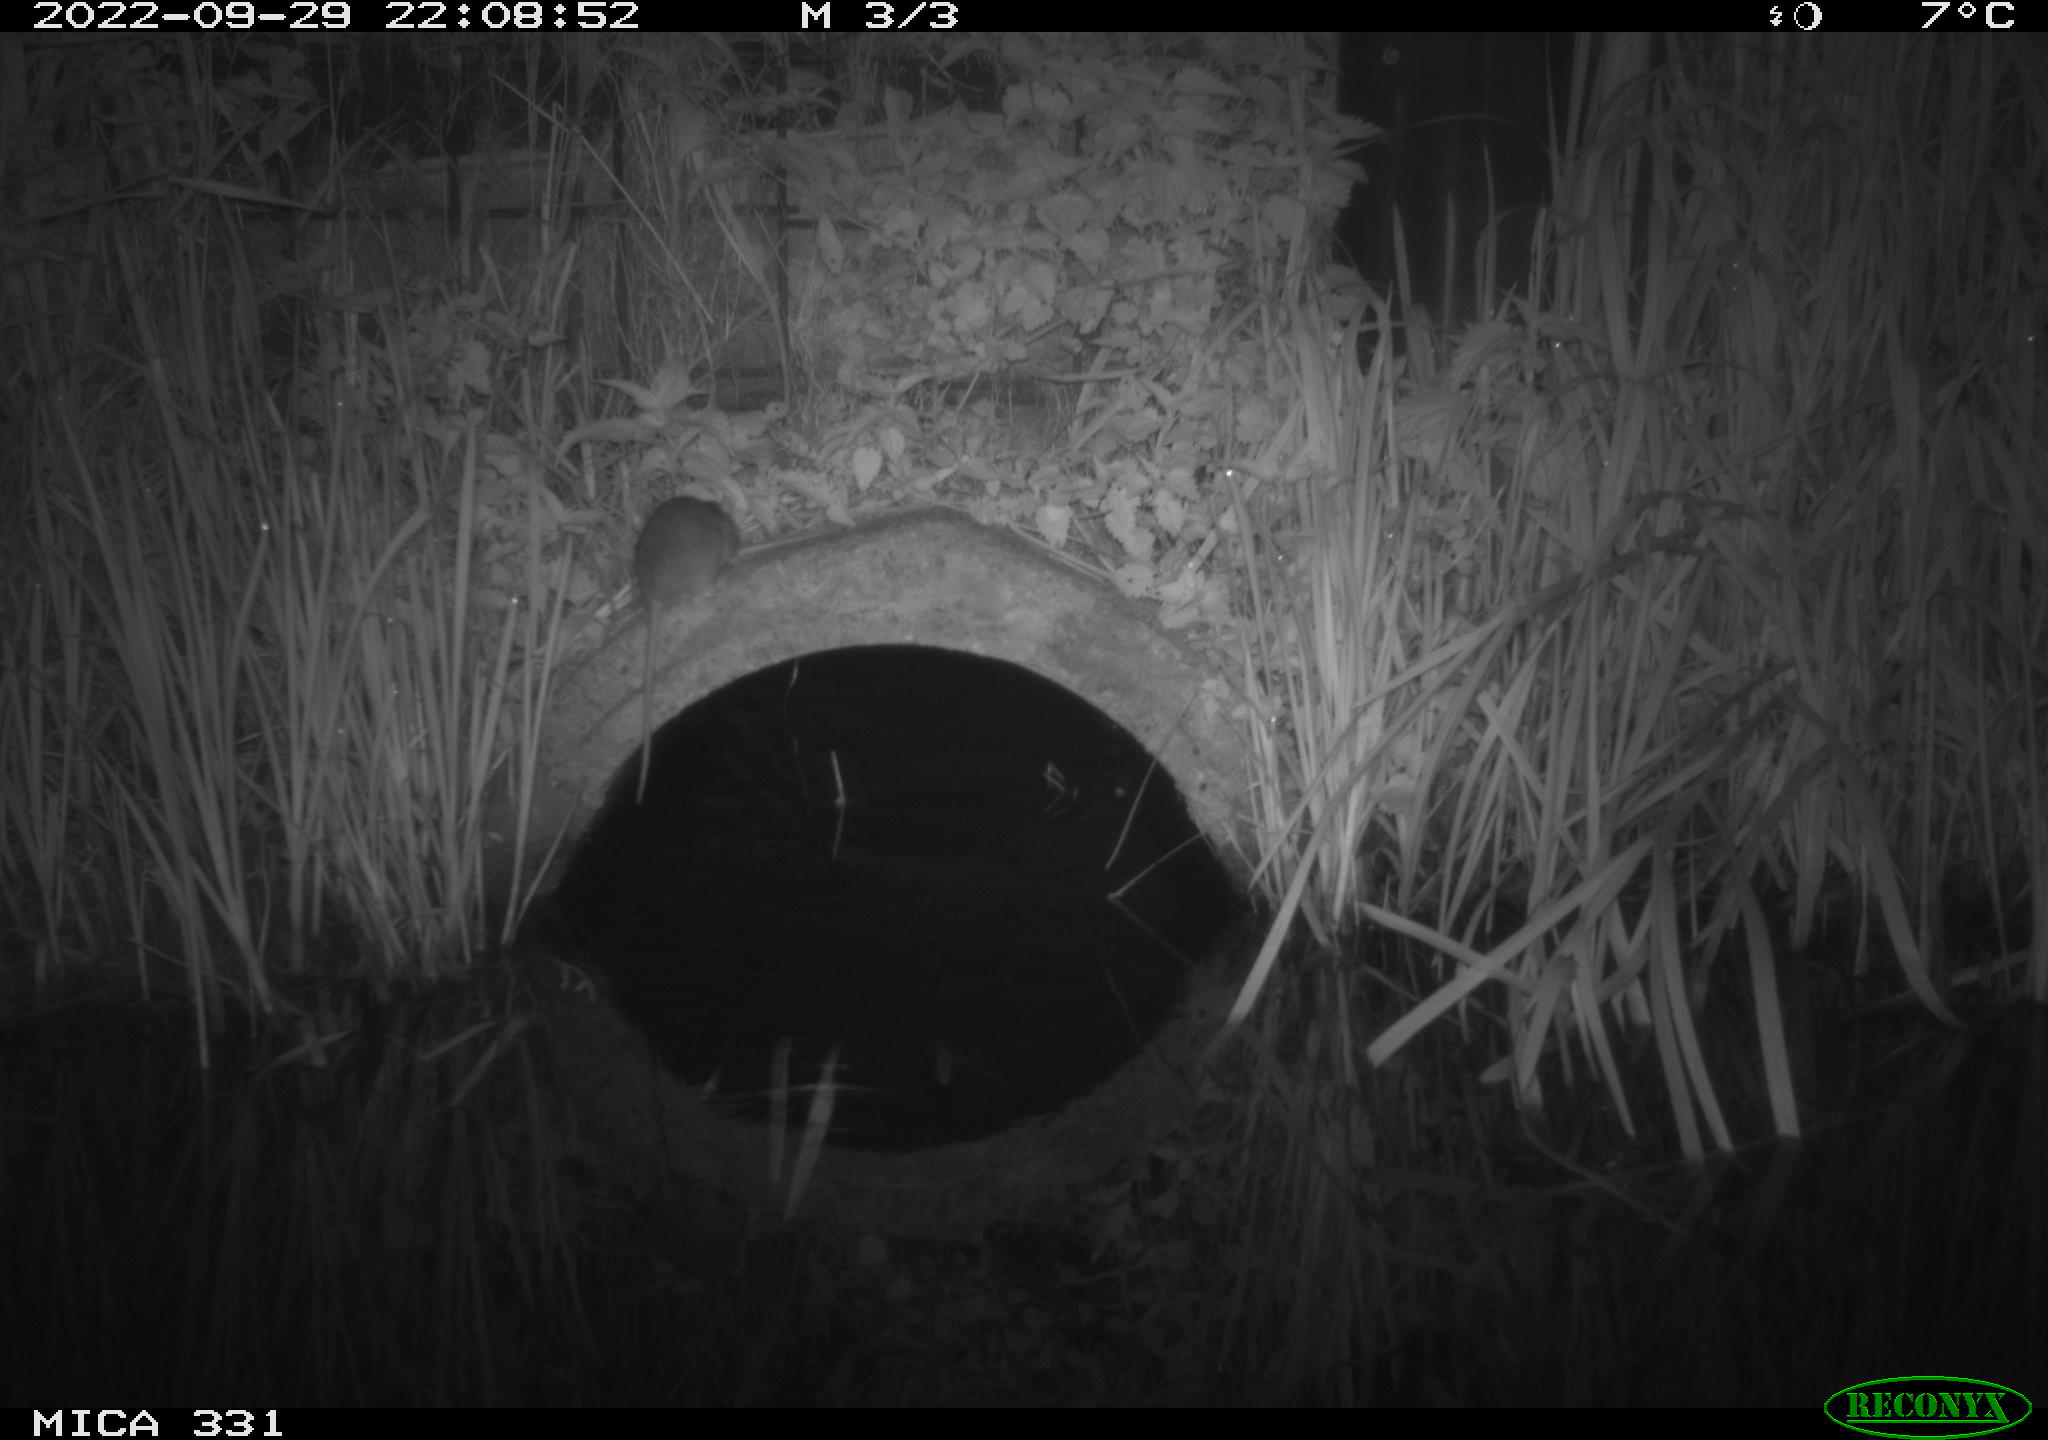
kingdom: Animalia
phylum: Chordata
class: Mammalia
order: Rodentia
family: Muridae
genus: Rattus
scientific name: Rattus norvegicus
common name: Brown rat
